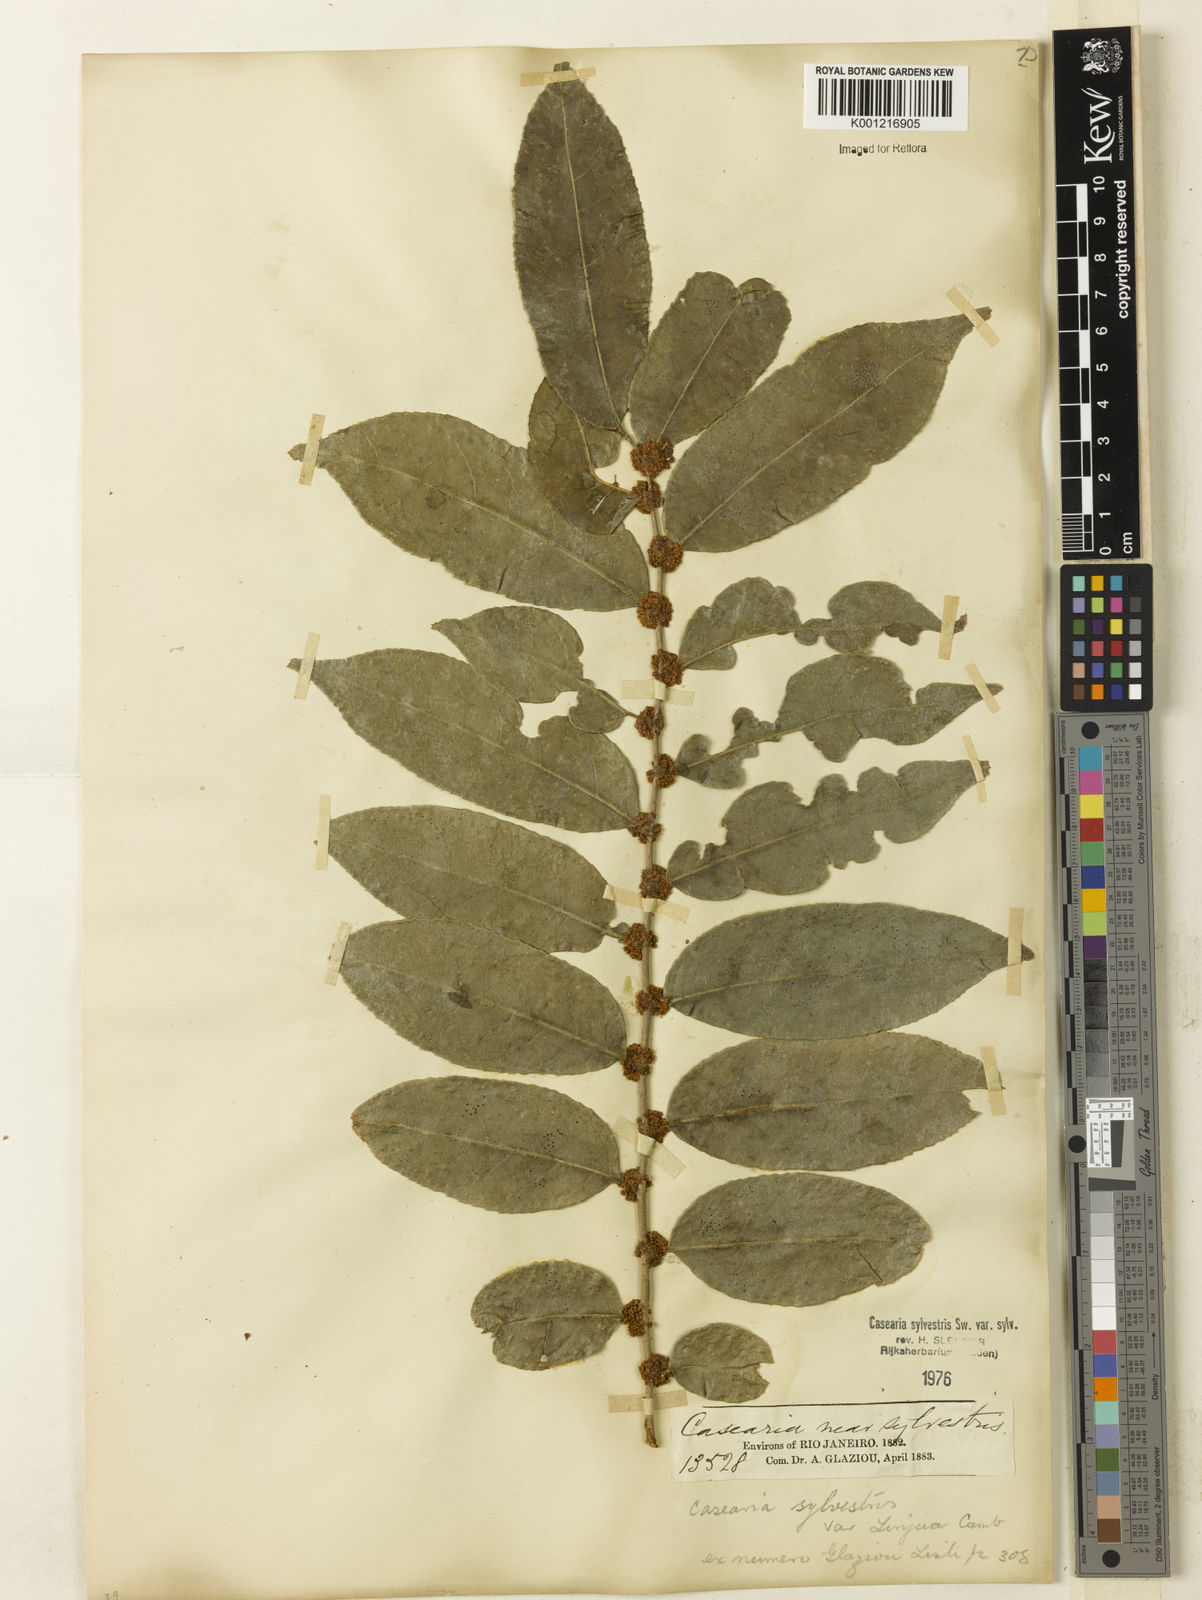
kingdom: Plantae
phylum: Tracheophyta
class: Magnoliopsida
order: Malpighiales
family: Salicaceae
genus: Casearia
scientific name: Casearia sylvestris
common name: Wild sage
